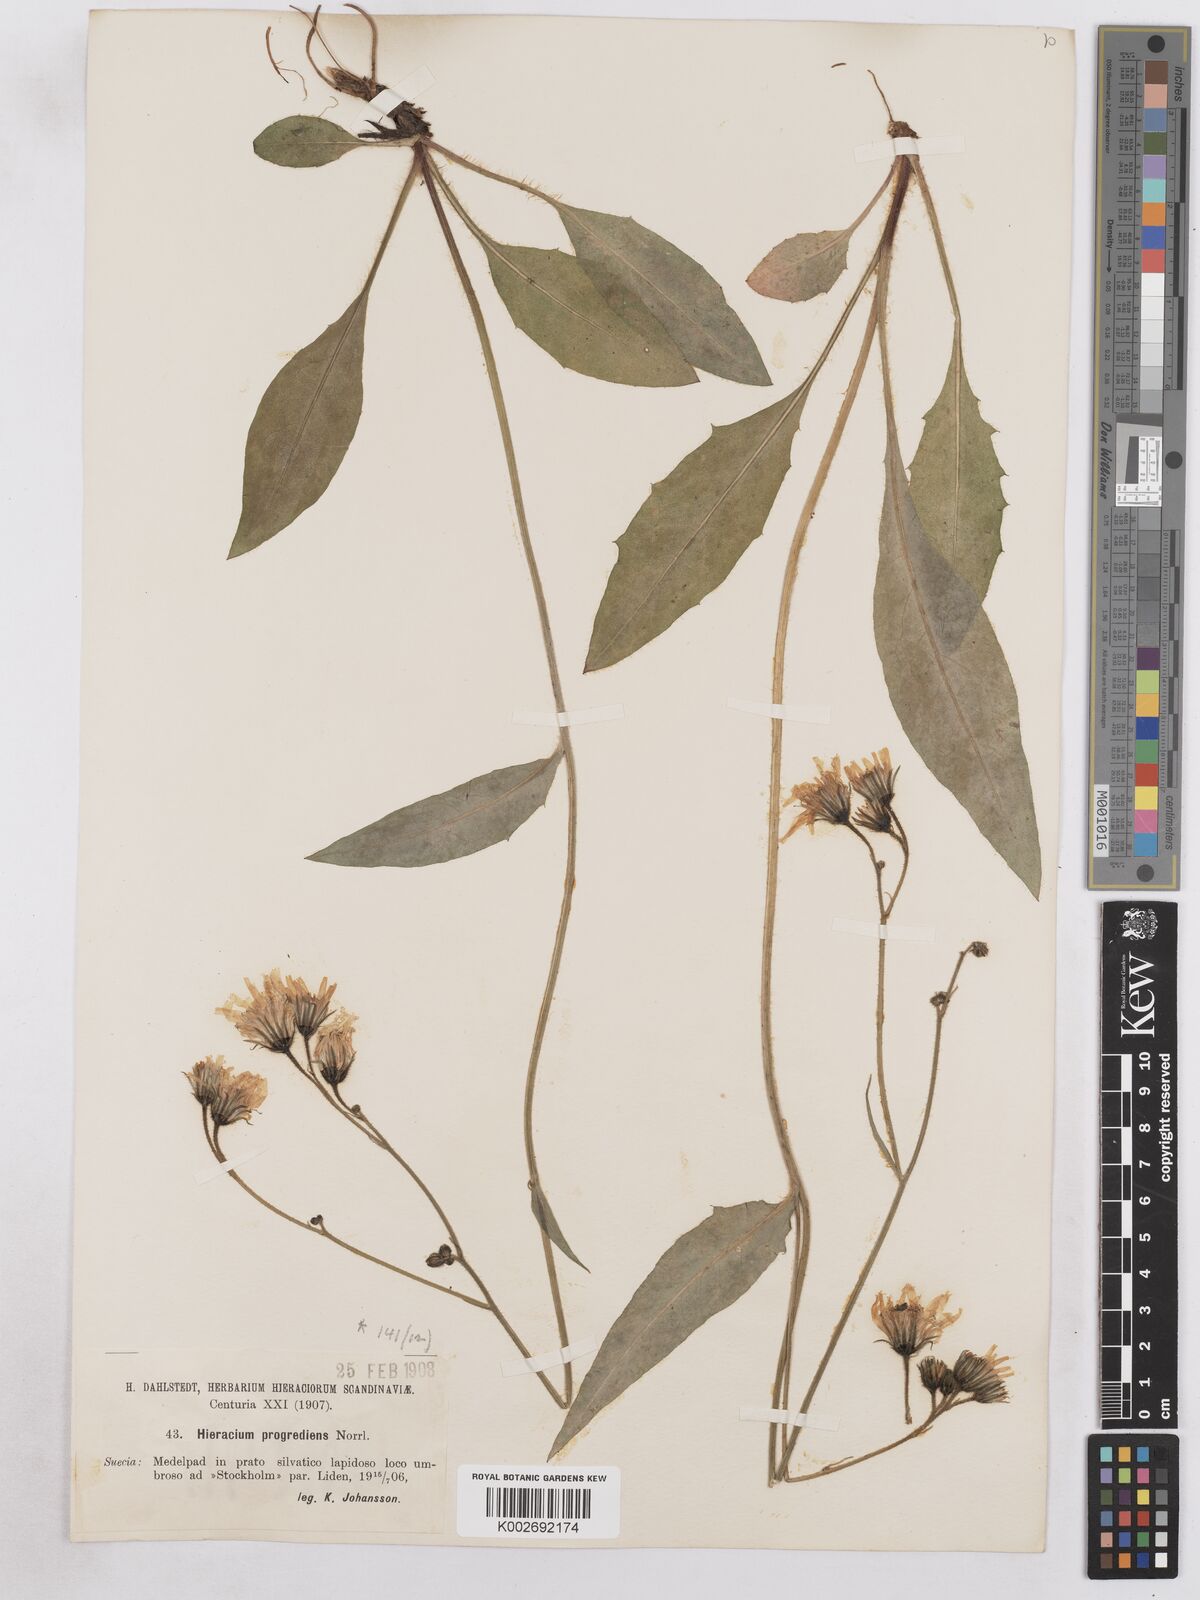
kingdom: Plantae
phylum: Tracheophyta
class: Magnoliopsida
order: Asterales
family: Asteraceae
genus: Hieracium
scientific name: Hieracium diaphanoides
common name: Fine-bracted hawkweed
